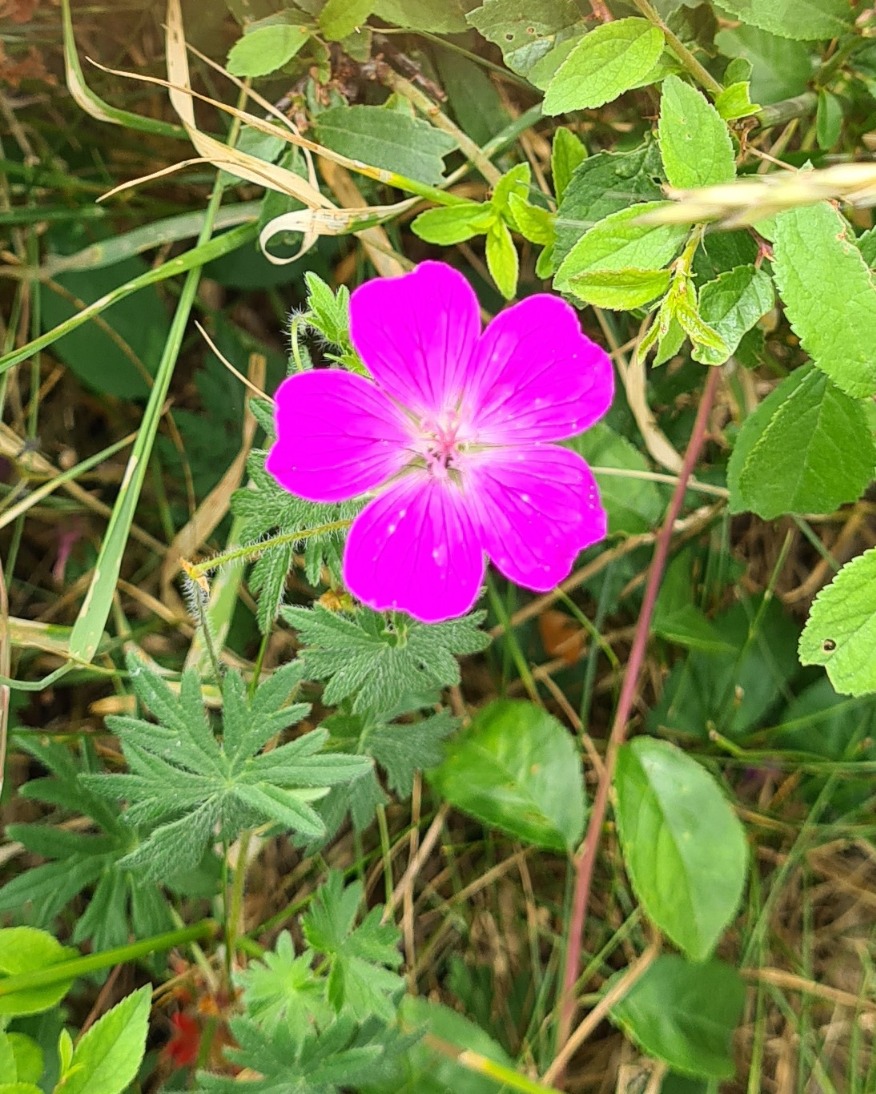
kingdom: Plantae
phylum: Tracheophyta
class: Magnoliopsida
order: Geraniales
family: Geraniaceae
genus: Geranium
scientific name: Geranium sanguineum
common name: Blodrød storkenæb
